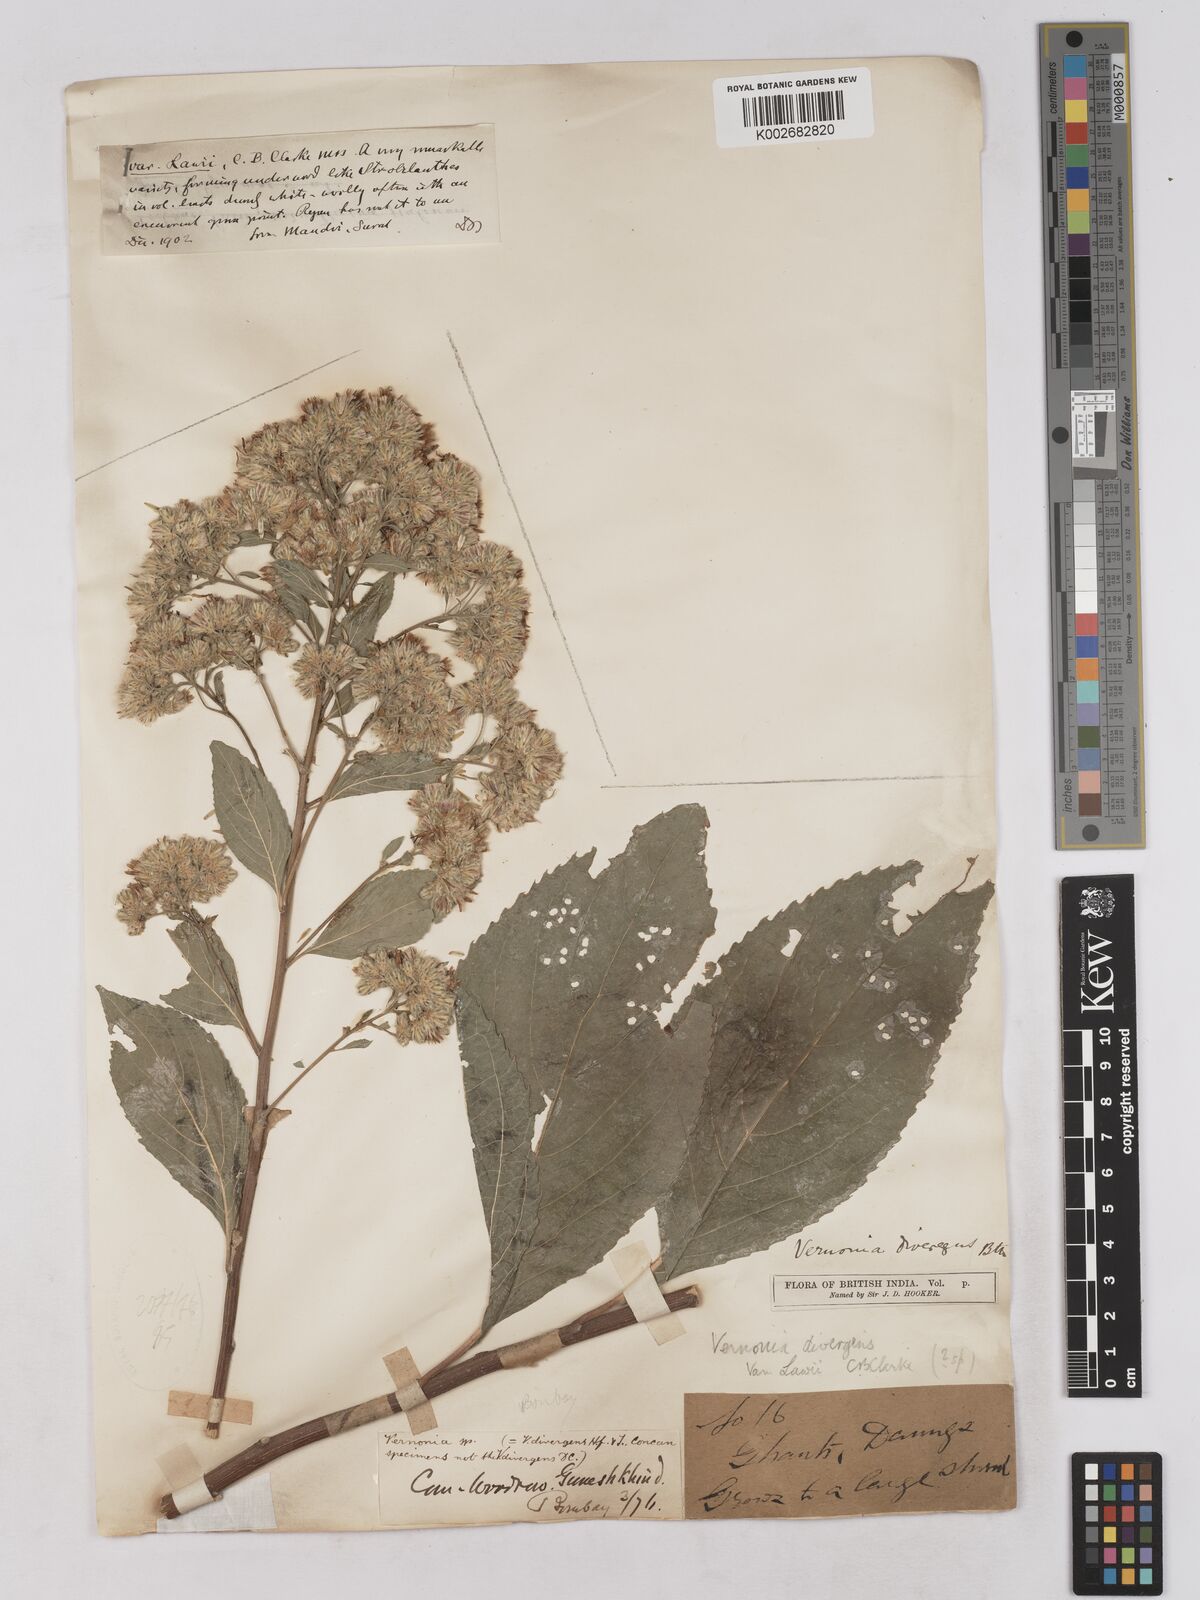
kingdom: Plantae
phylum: Tracheophyta
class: Magnoliopsida
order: Asterales
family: Asteraceae
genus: Acilepis
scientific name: Acilepis divergens
